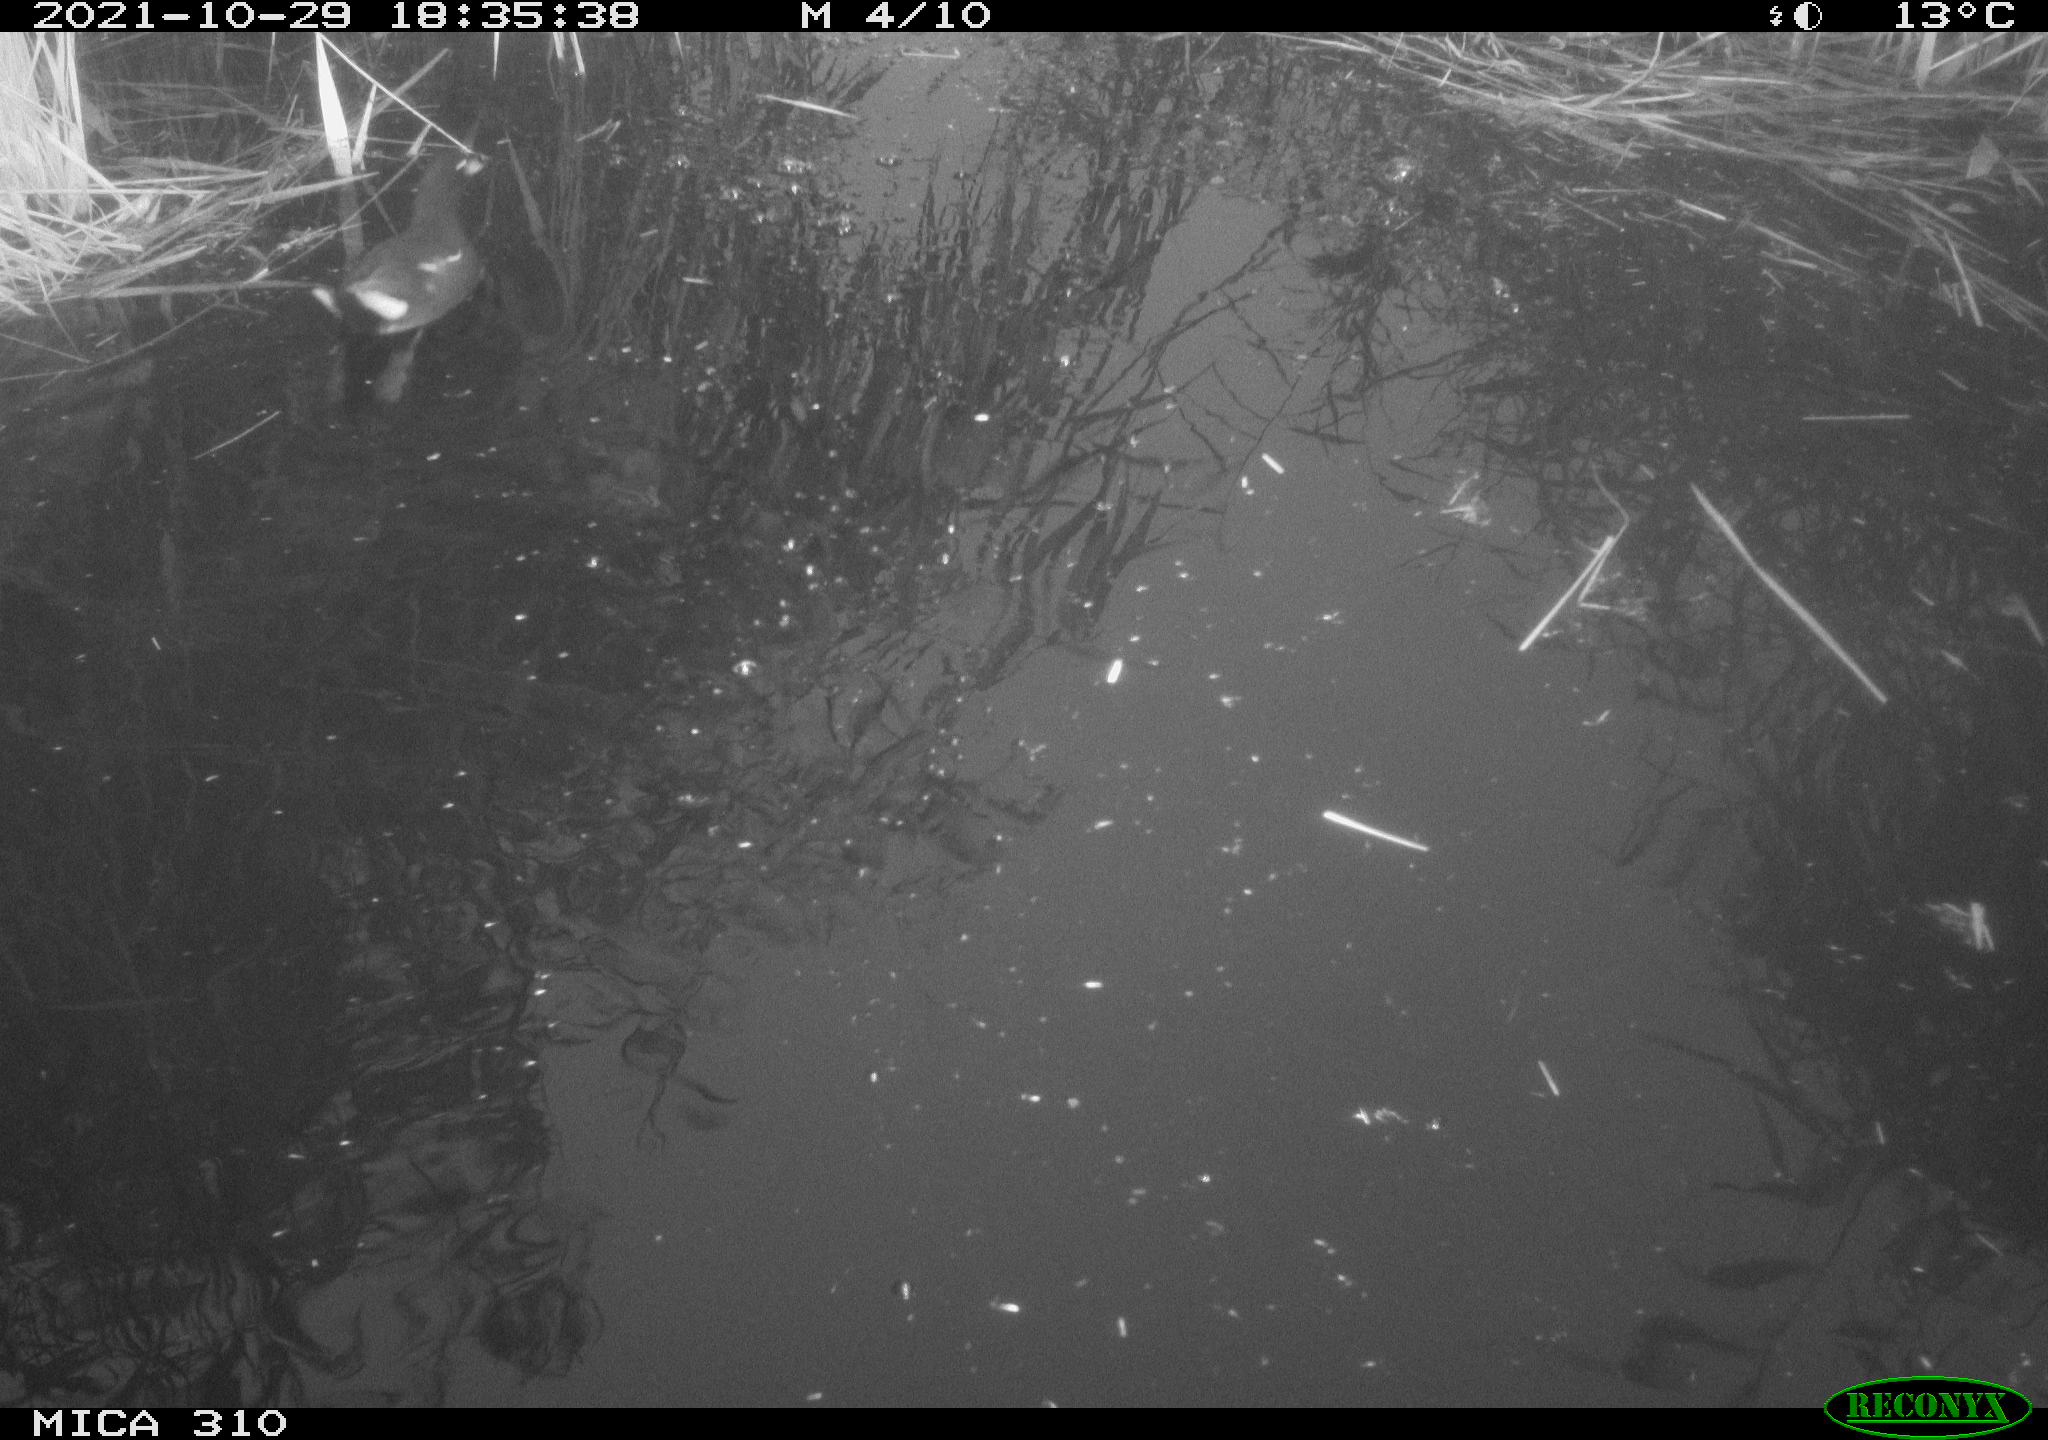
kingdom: Animalia
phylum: Chordata
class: Aves
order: Gruiformes
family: Rallidae
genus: Gallinula
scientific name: Gallinula chloropus
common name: Common moorhen
